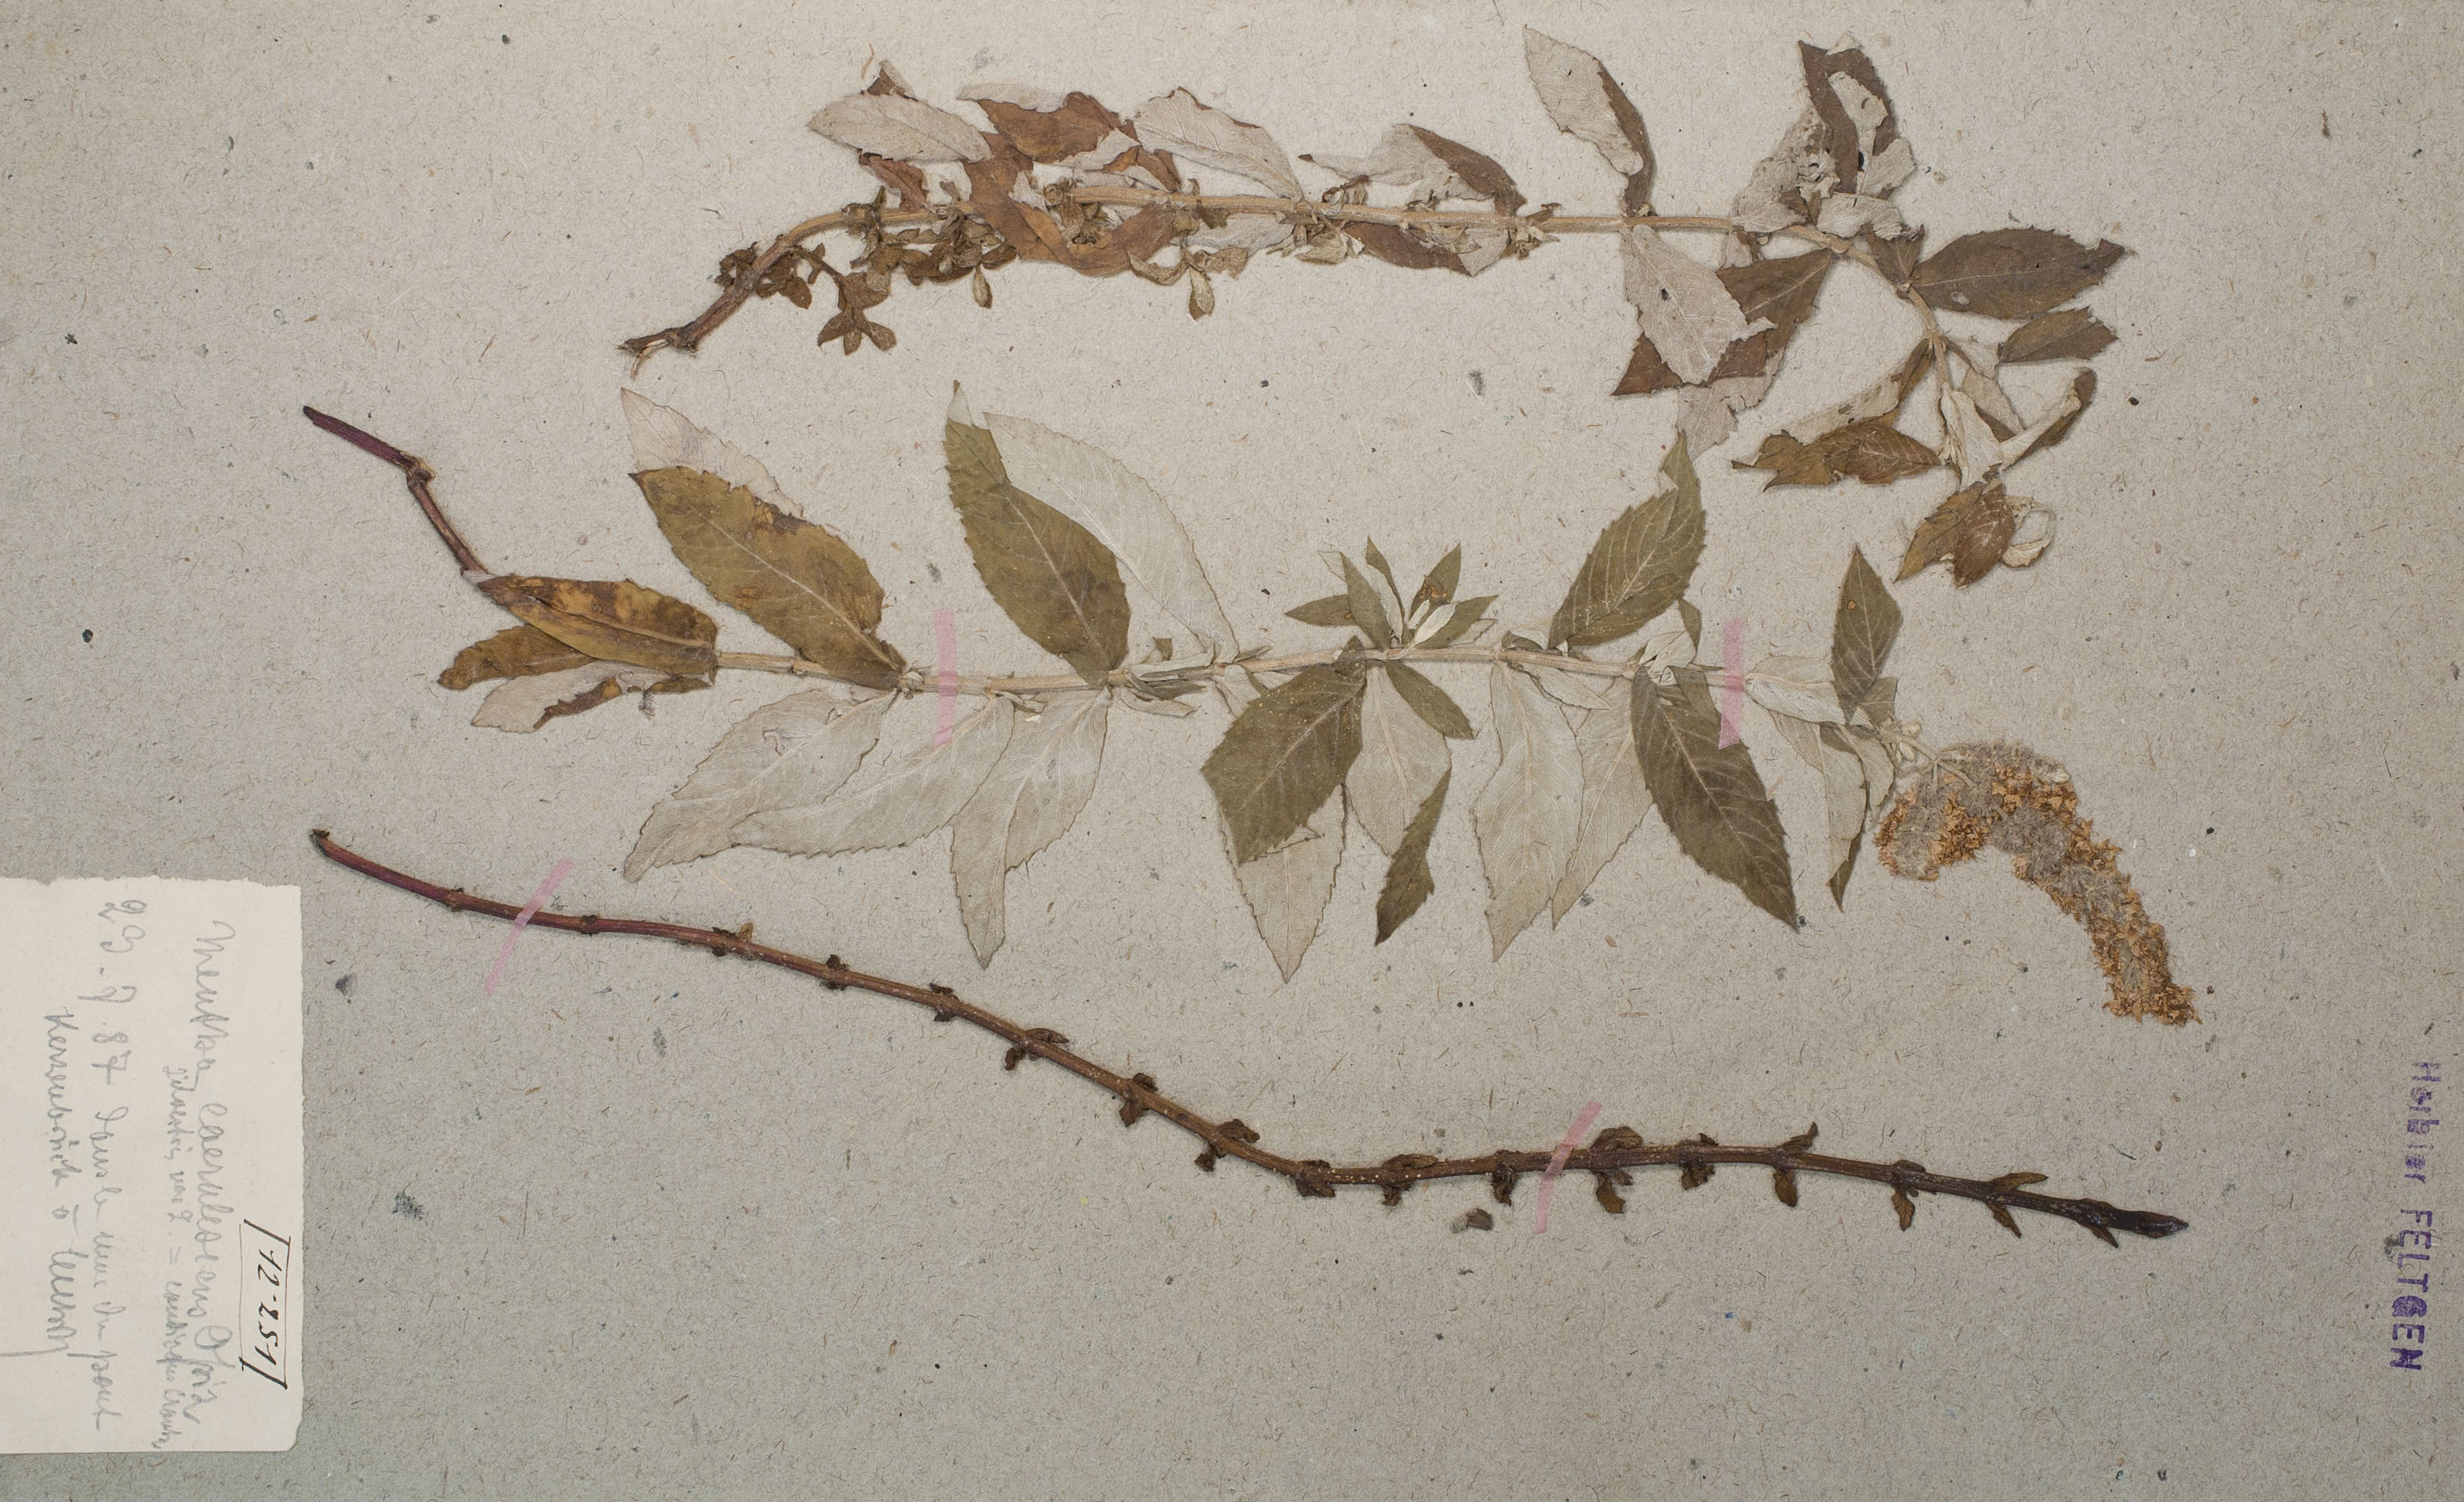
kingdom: Plantae
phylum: Tracheophyta
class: Magnoliopsida
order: Lamiales
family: Lamiaceae
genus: Mentha
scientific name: Mentha longifolia
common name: Horse mint
